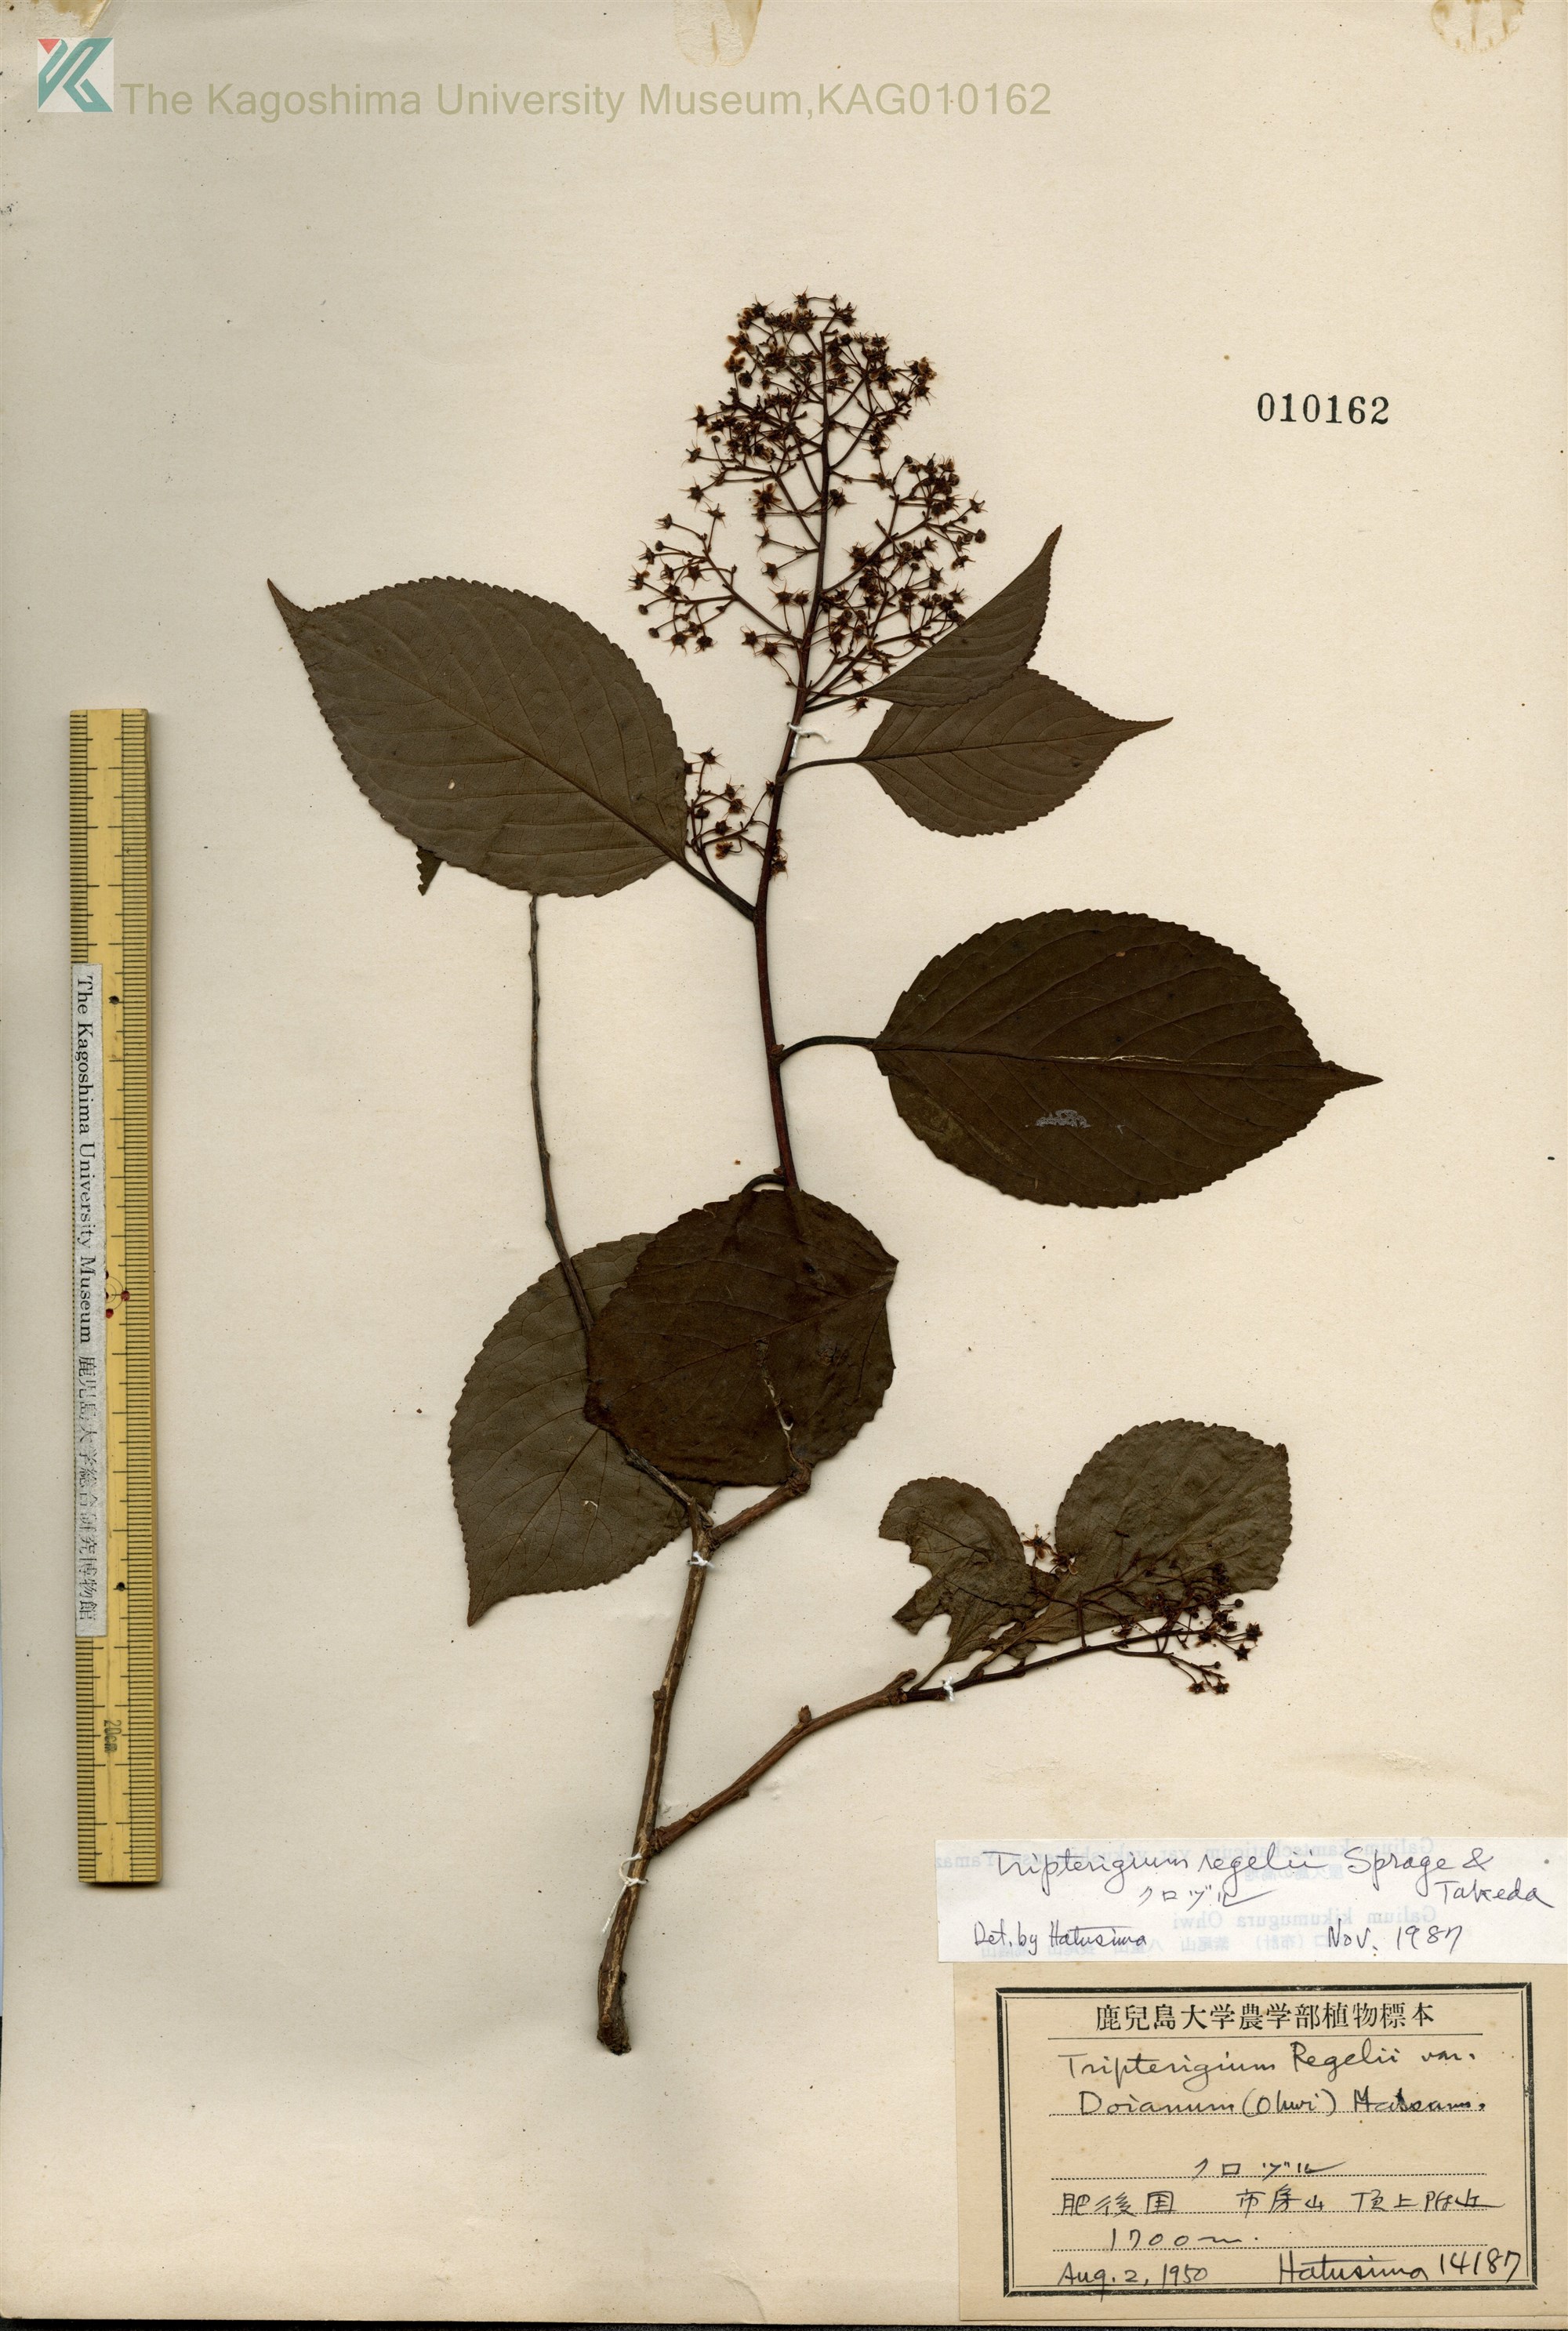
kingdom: Plantae
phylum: Tracheophyta
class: Magnoliopsida
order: Celastrales
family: Celastraceae
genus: Tripterygium
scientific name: Tripterygium wilfordii
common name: クロヅル
